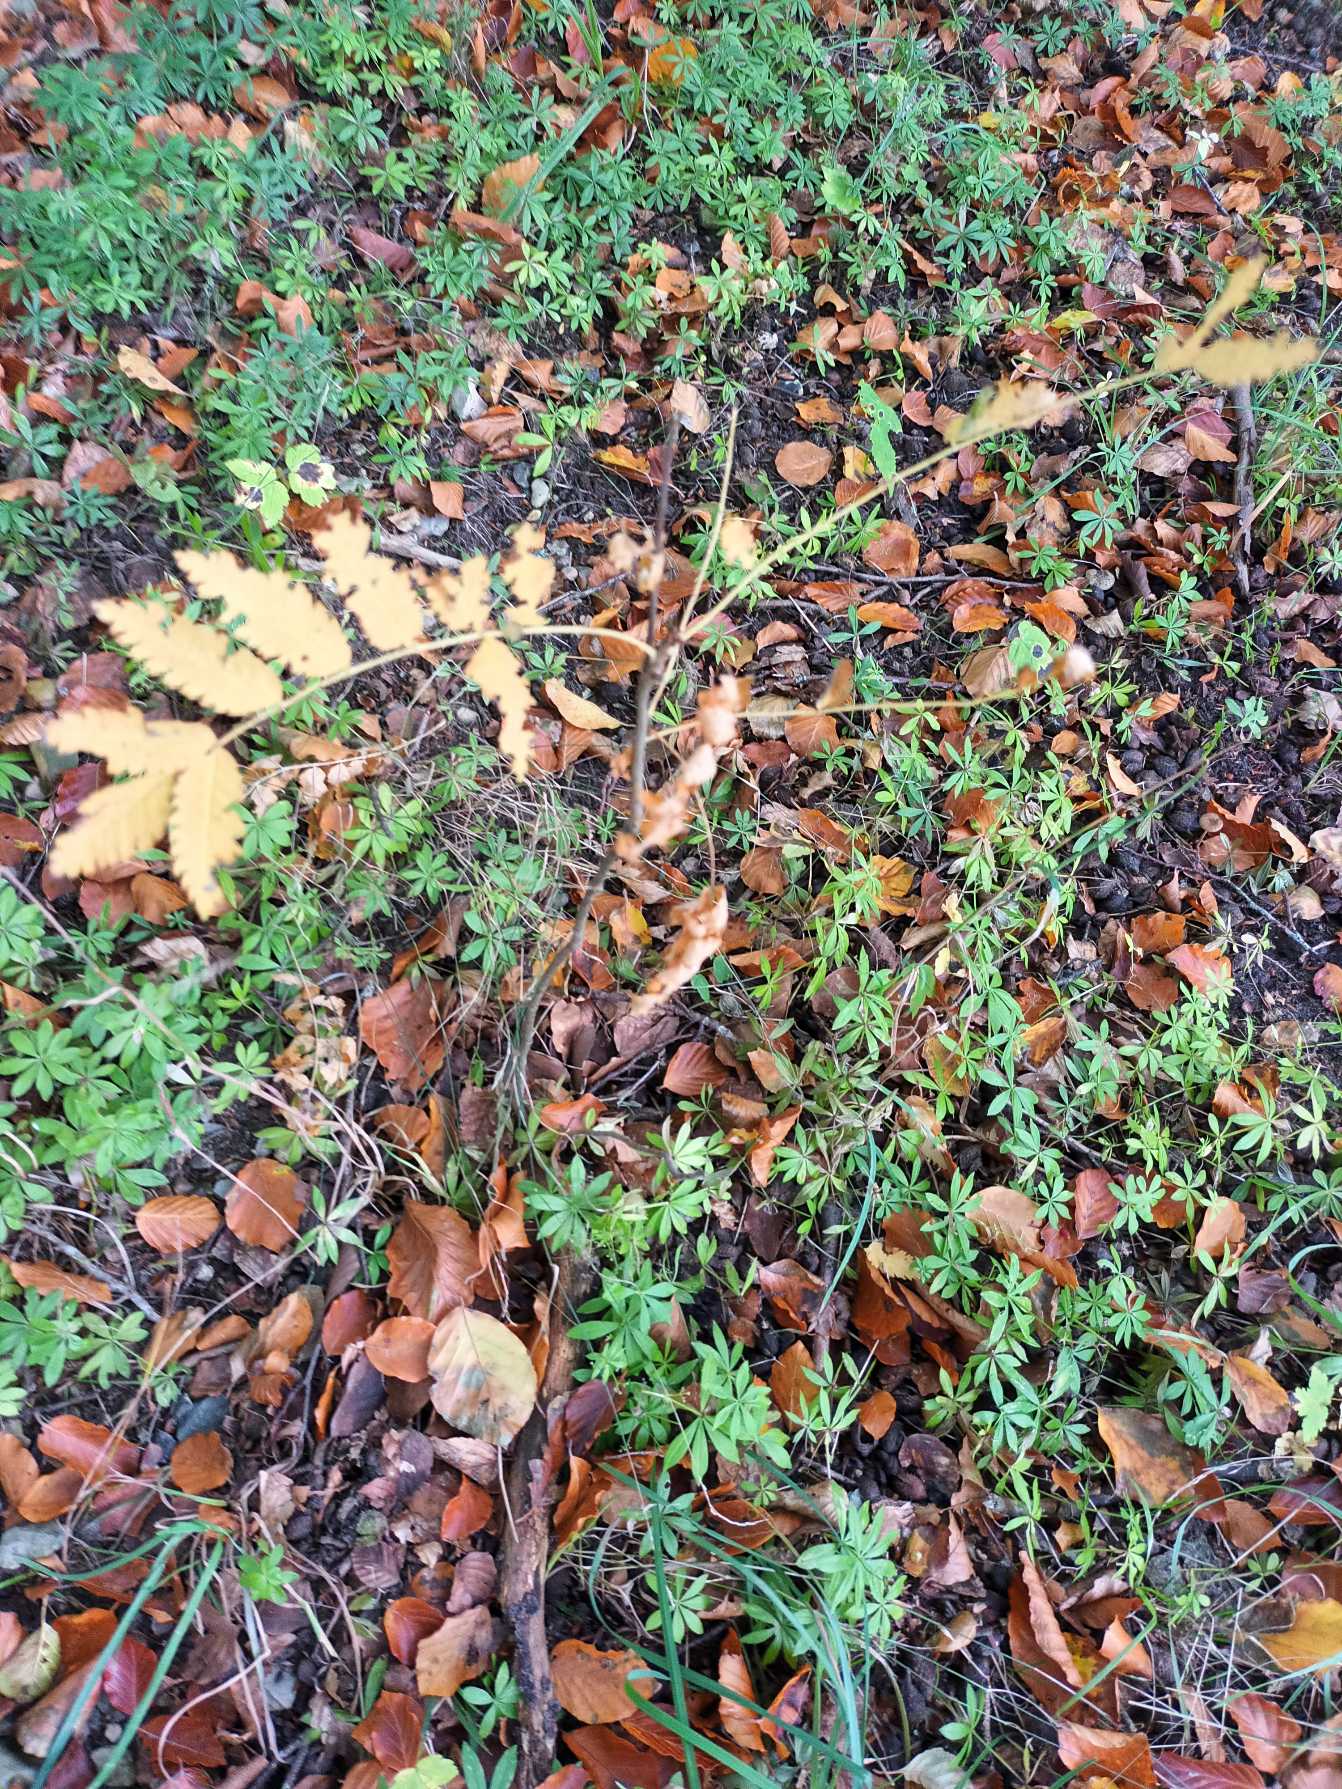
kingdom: Plantae
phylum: Tracheophyta
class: Magnoliopsida
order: Rosales
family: Rosaceae
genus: Sorbus
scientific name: Sorbus aucuparia
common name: Almindelig røn
